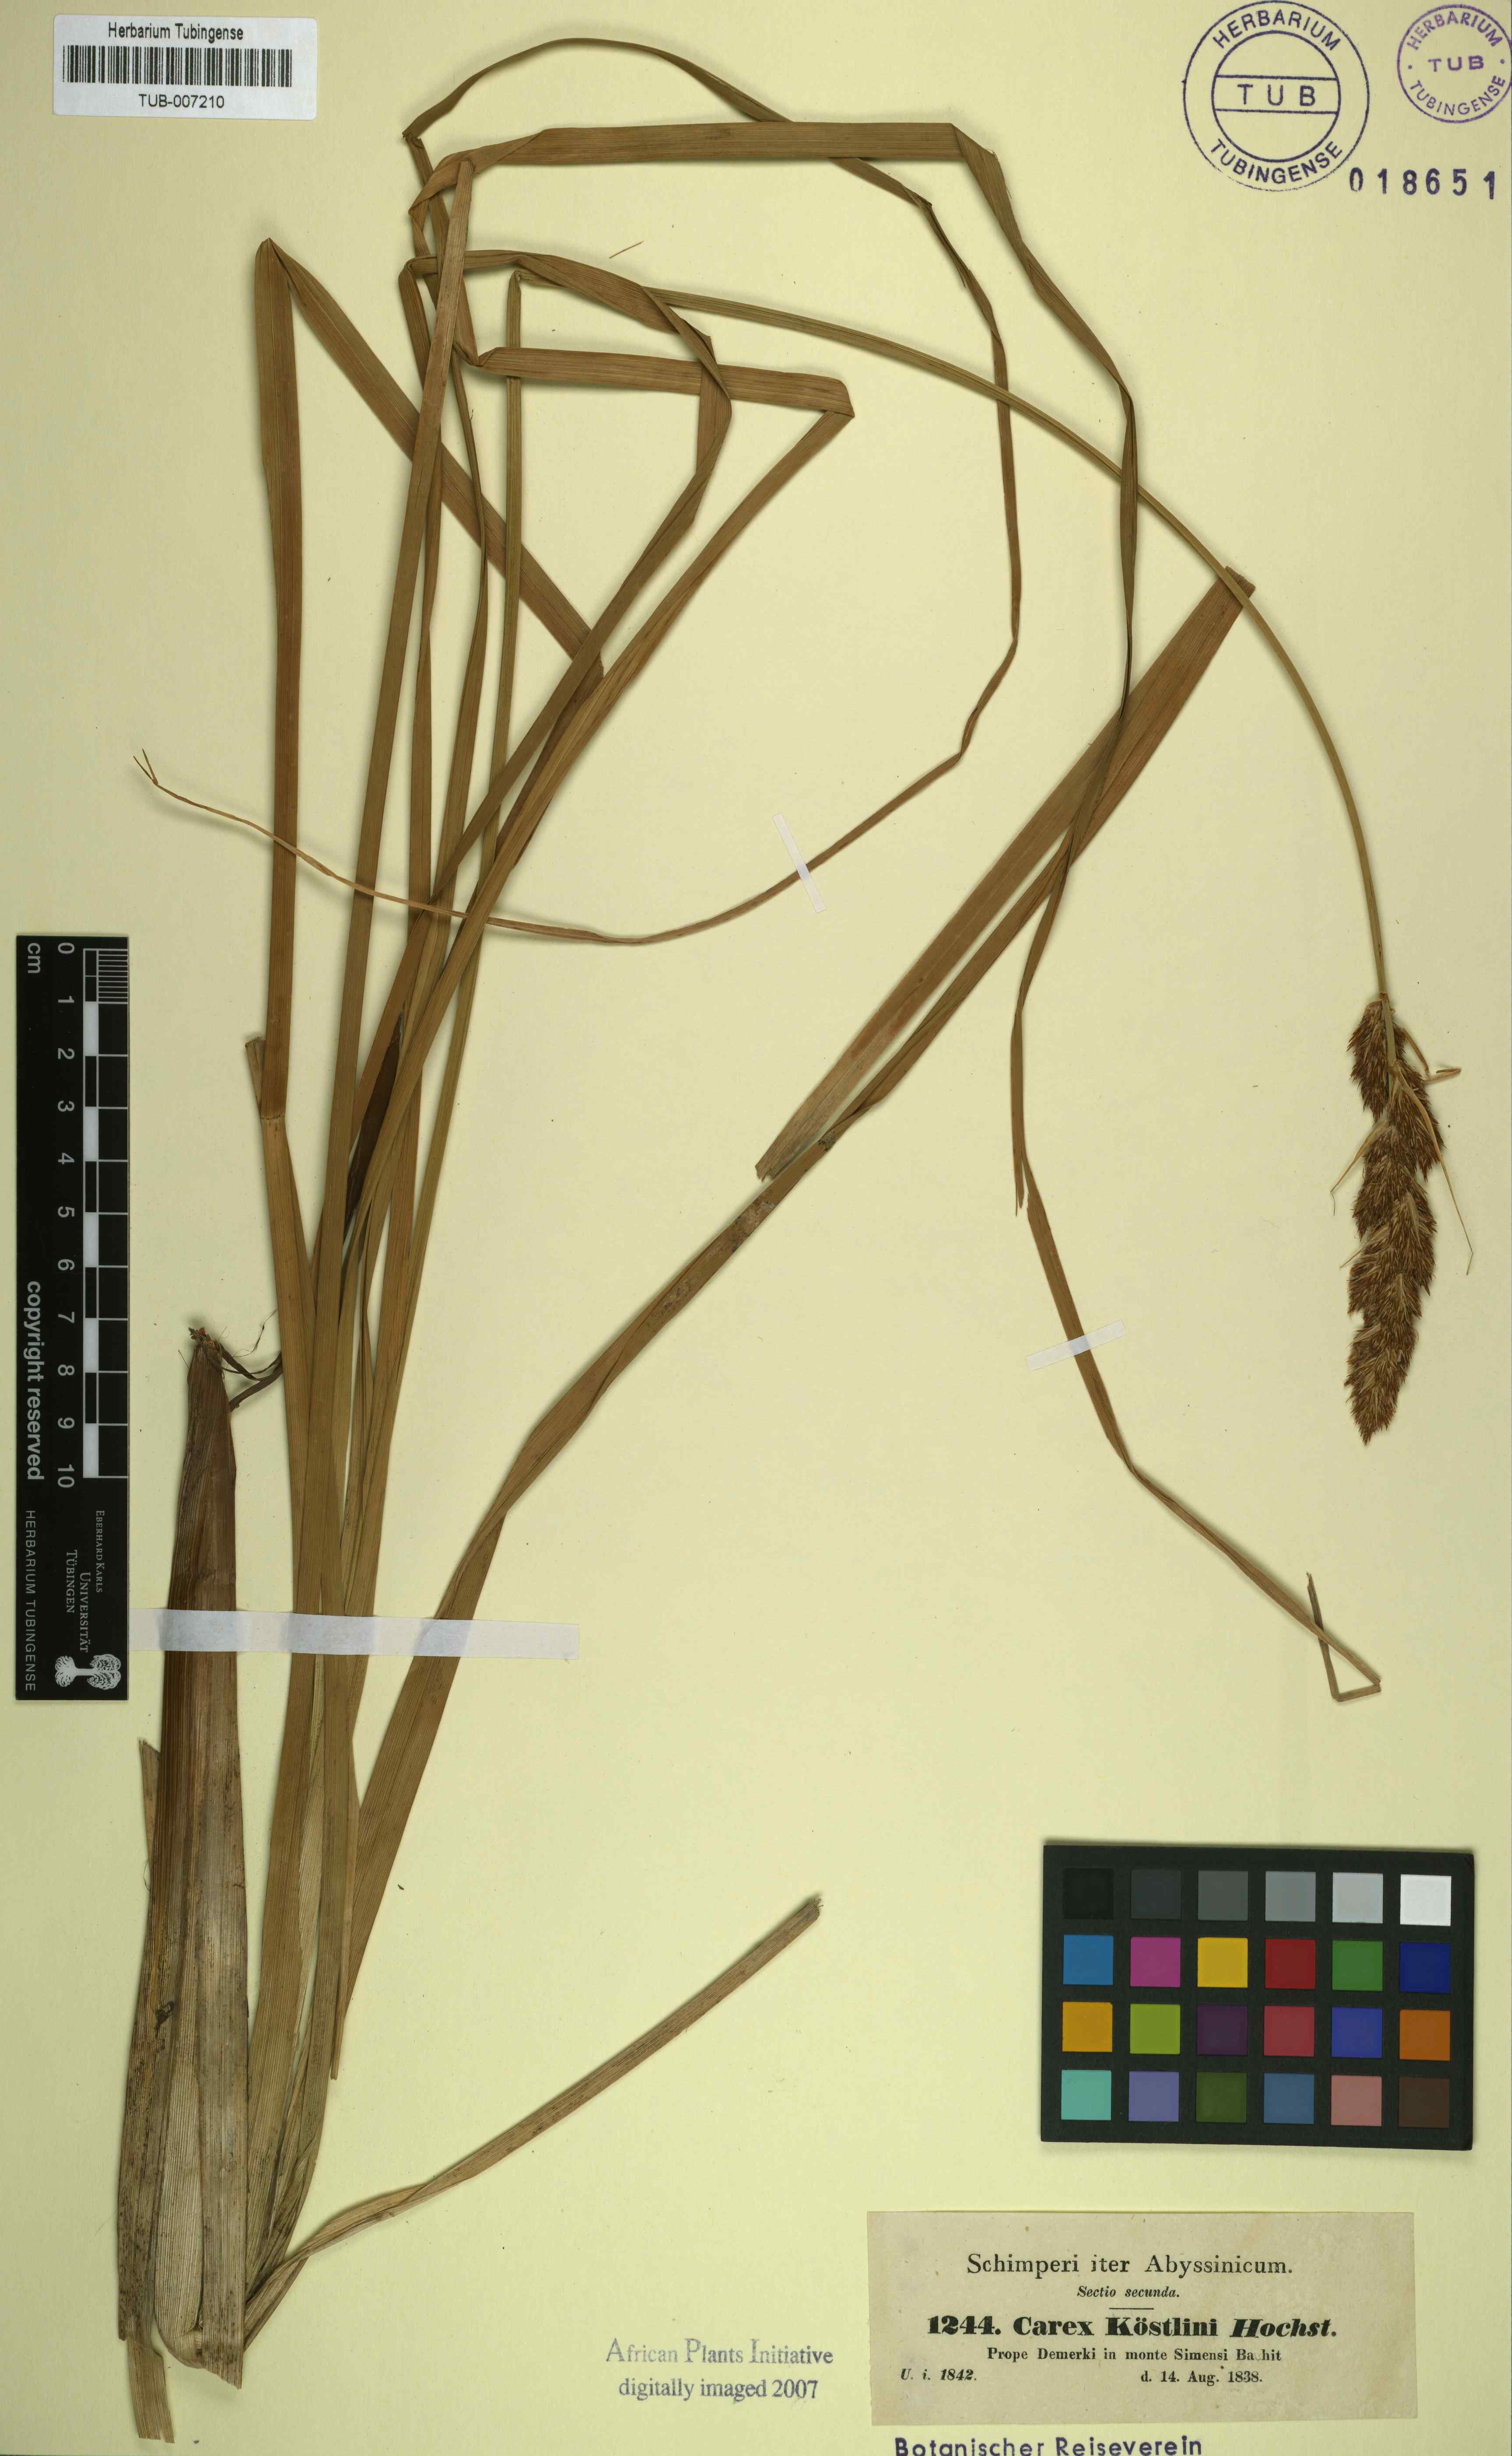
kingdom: Plantae
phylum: Tracheophyta
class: Liliopsida
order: Poales
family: Cyperaceae
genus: Carex
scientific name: Carex koestlinii
